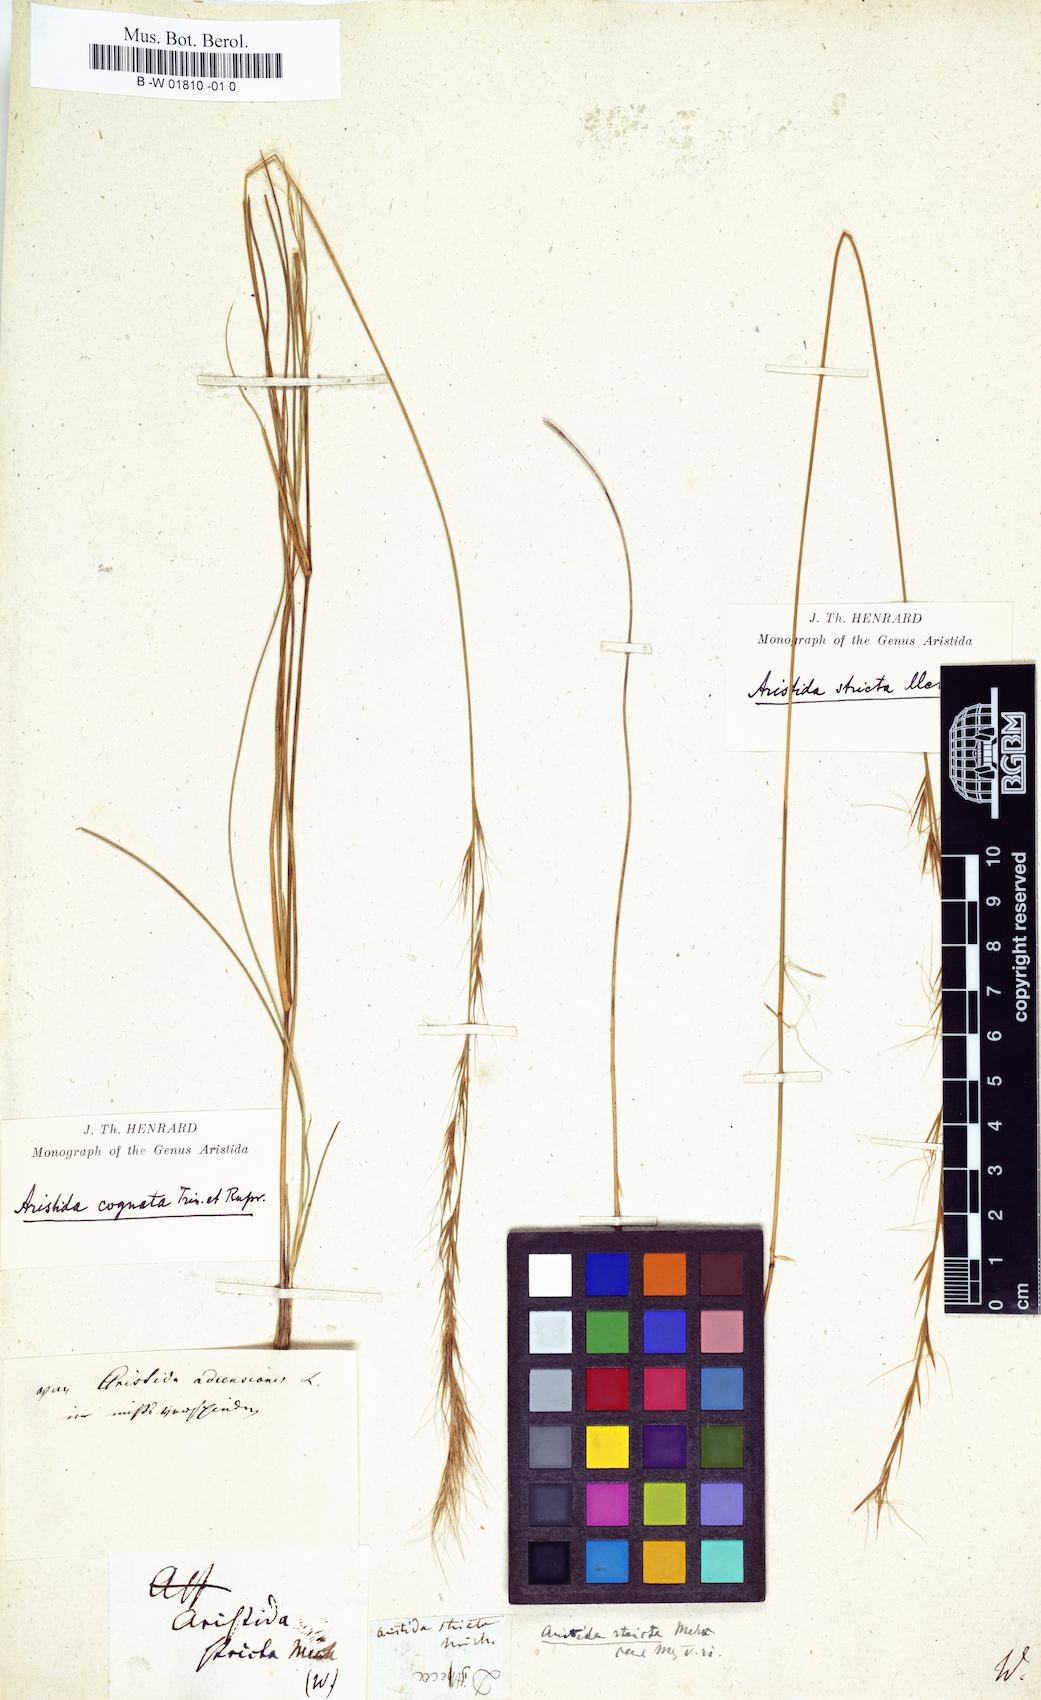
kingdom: Plantae
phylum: Tracheophyta
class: Liliopsida
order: Poales
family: Poaceae
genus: Aristida
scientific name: Aristida stricta
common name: Pineland three-awn
